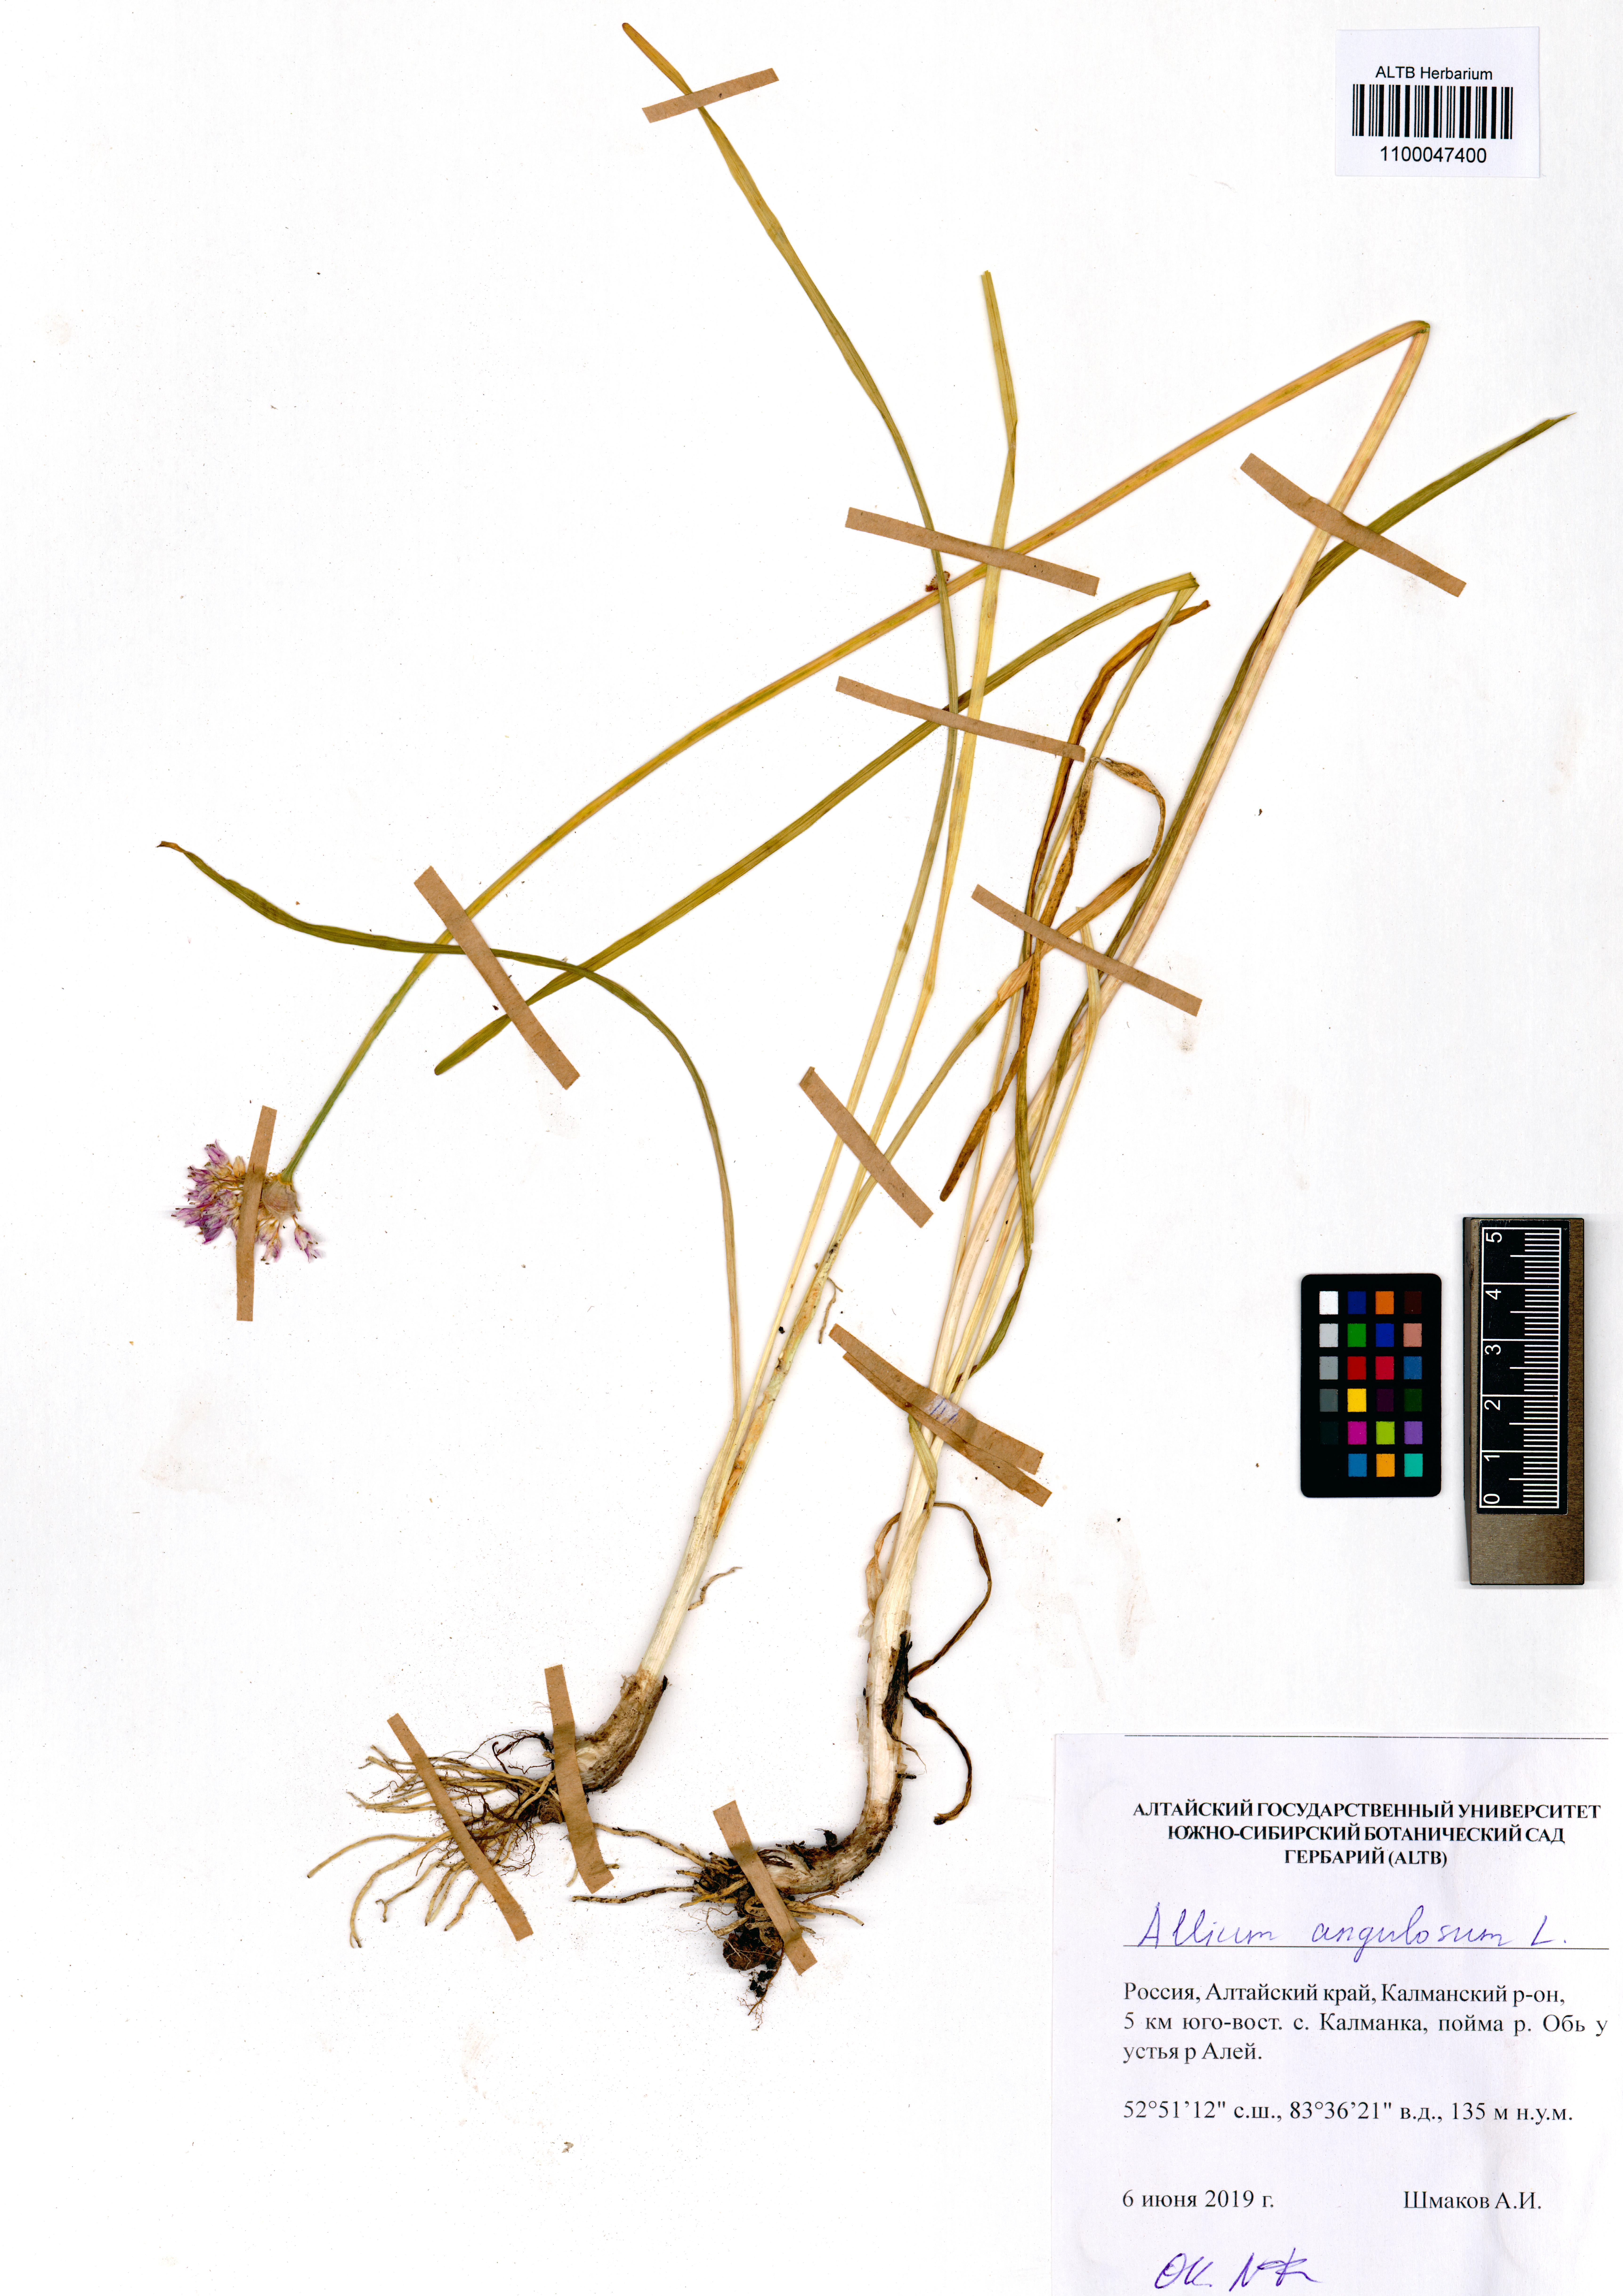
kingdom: Plantae
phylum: Tracheophyta
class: Liliopsida
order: Asparagales
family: Amaryllidaceae
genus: Allium
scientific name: Allium angulosum
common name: Mouse garlic
